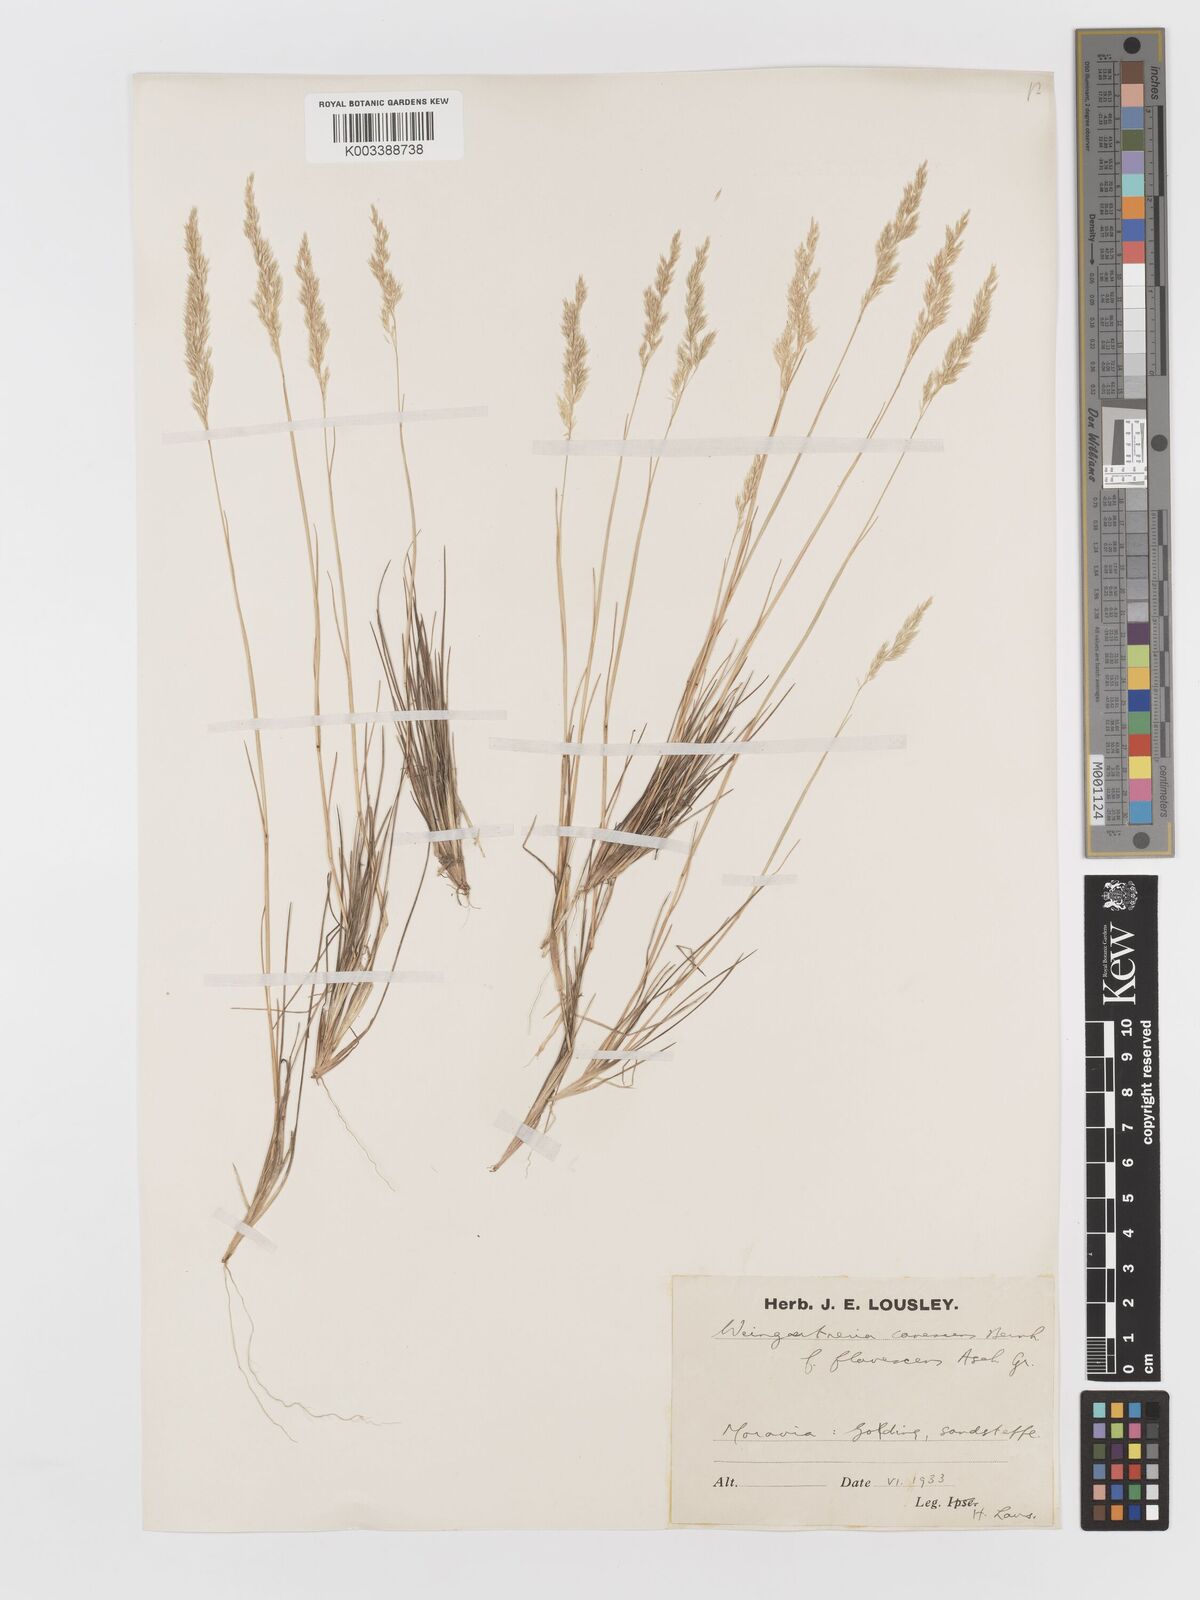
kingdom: Plantae
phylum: Tracheophyta
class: Liliopsida
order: Poales
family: Poaceae
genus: Corynephorus
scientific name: Corynephorus canescens
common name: Grey hair-grass
